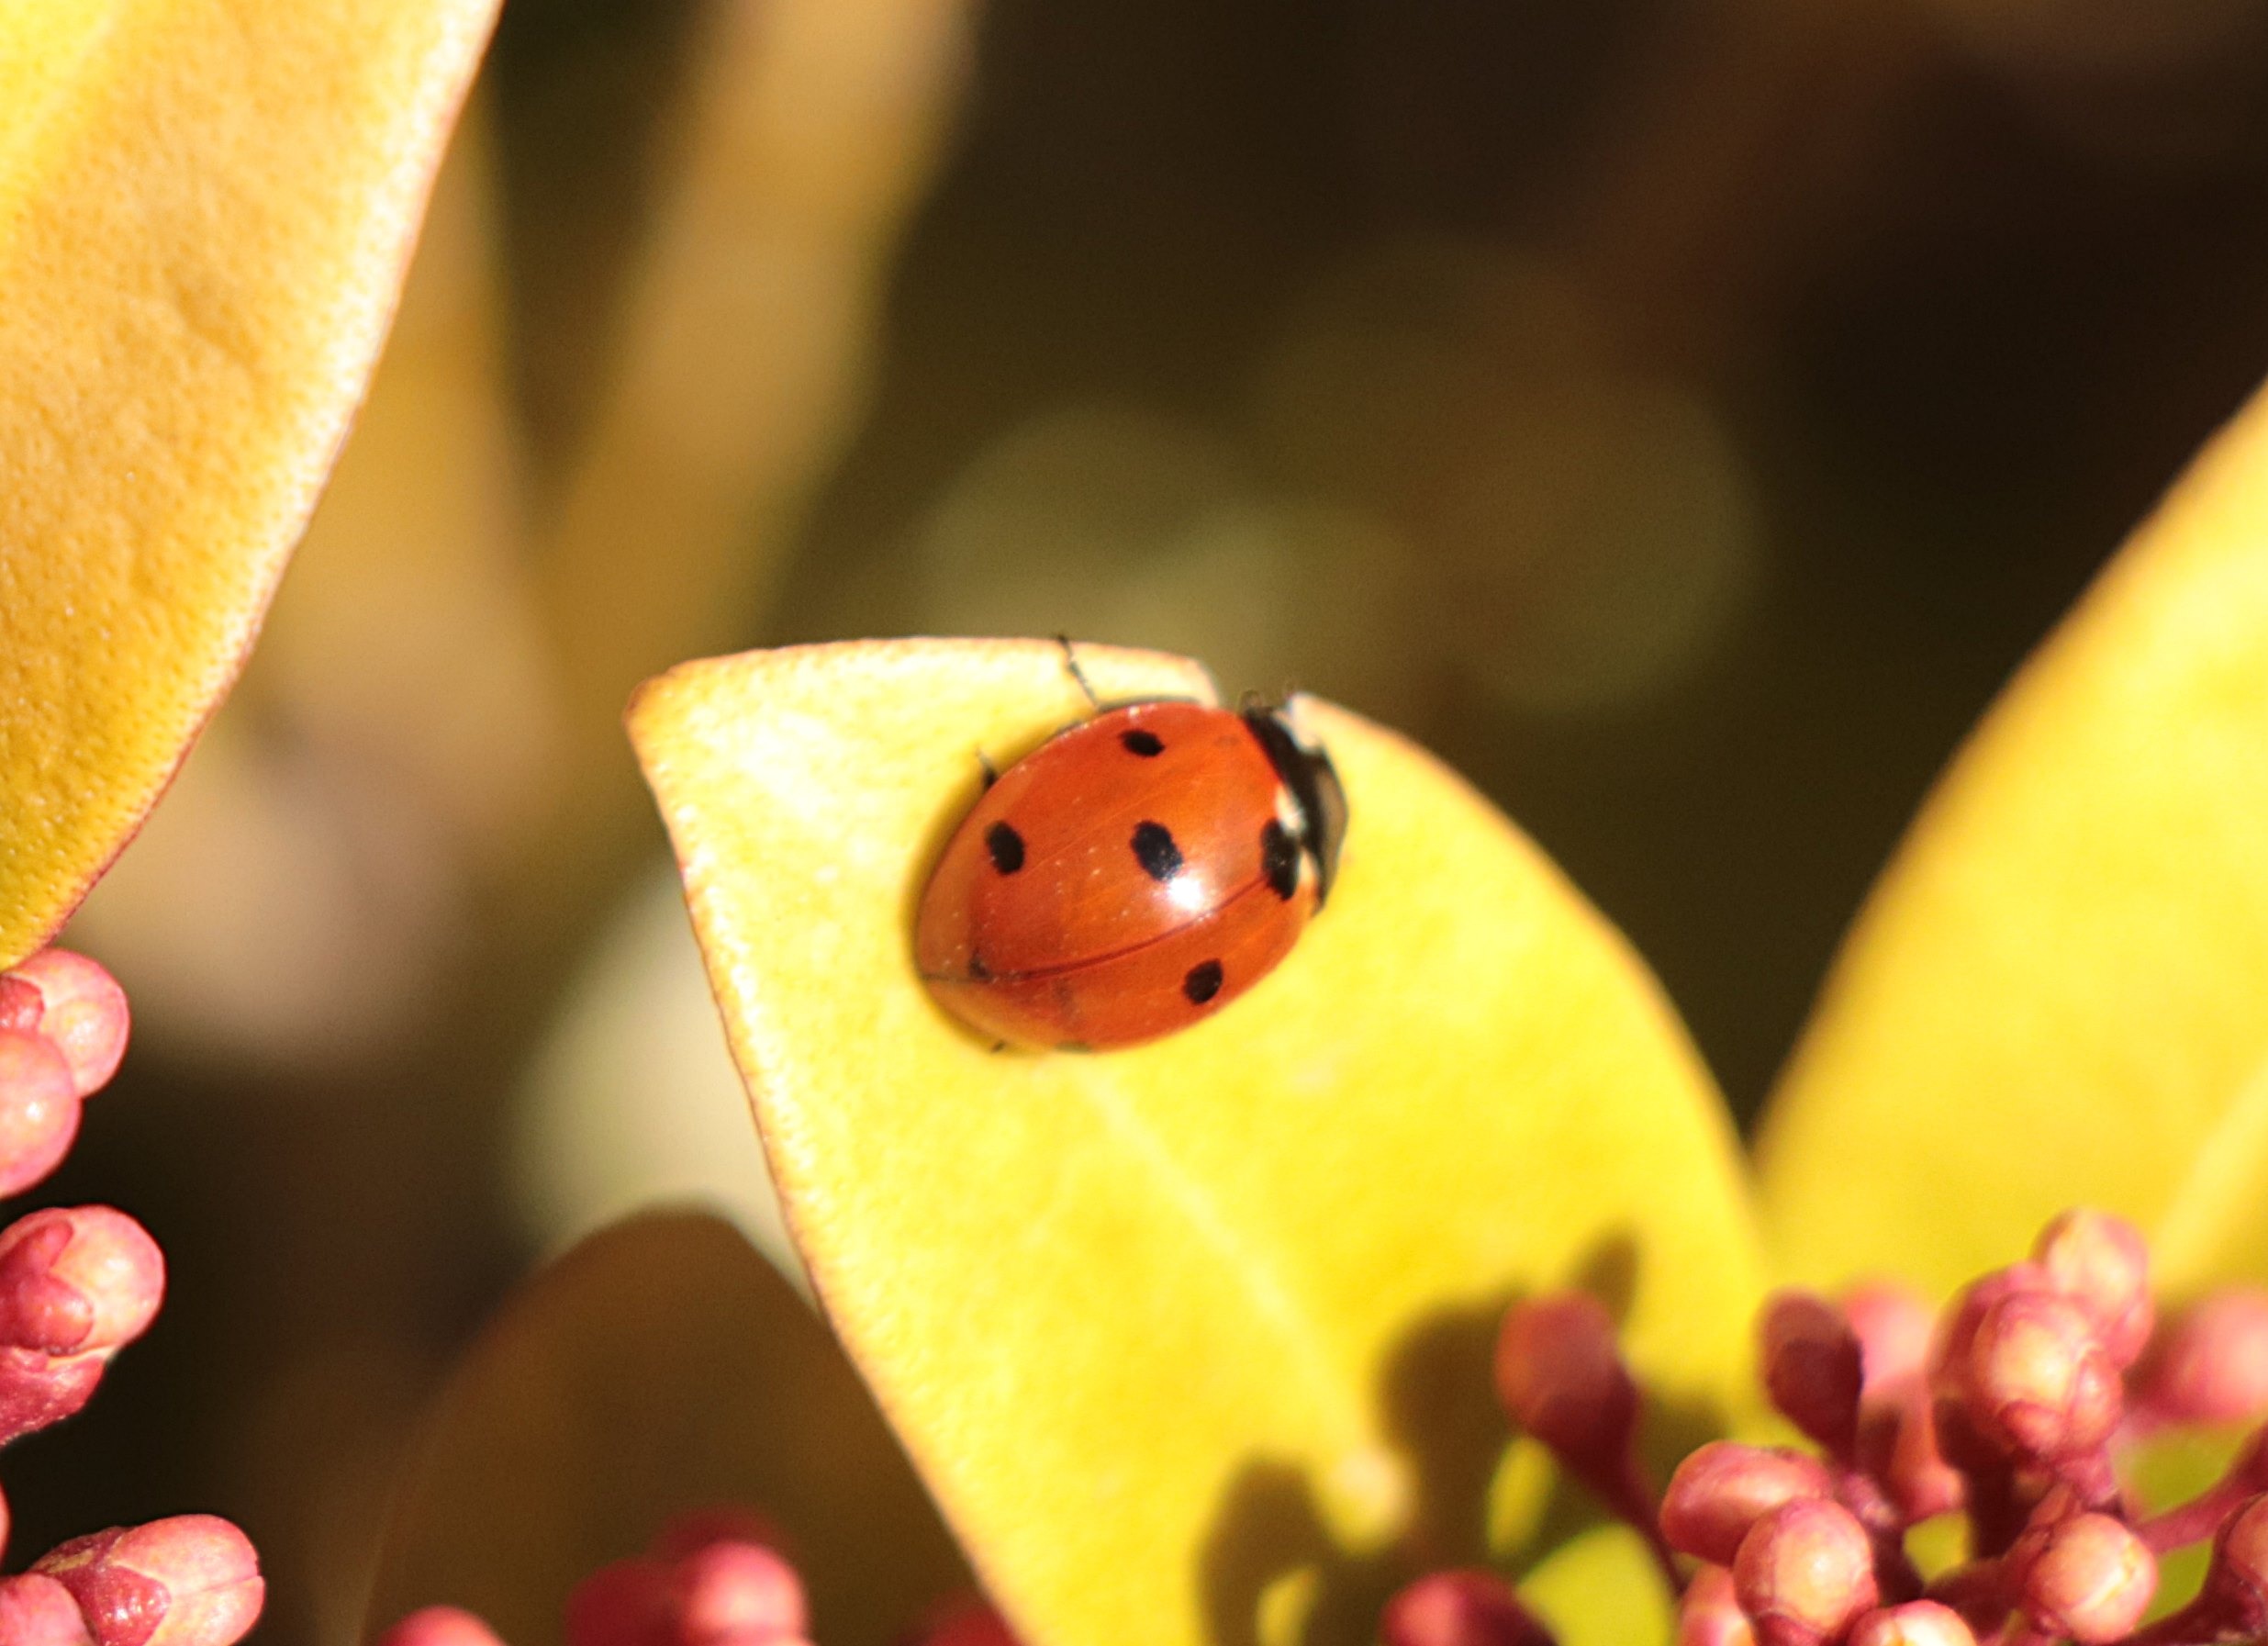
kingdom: Animalia
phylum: Arthropoda
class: Insecta
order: Coleoptera
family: Coccinellidae
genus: Coccinella
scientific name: Coccinella septempunctata
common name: Syvplettet mariehøne
